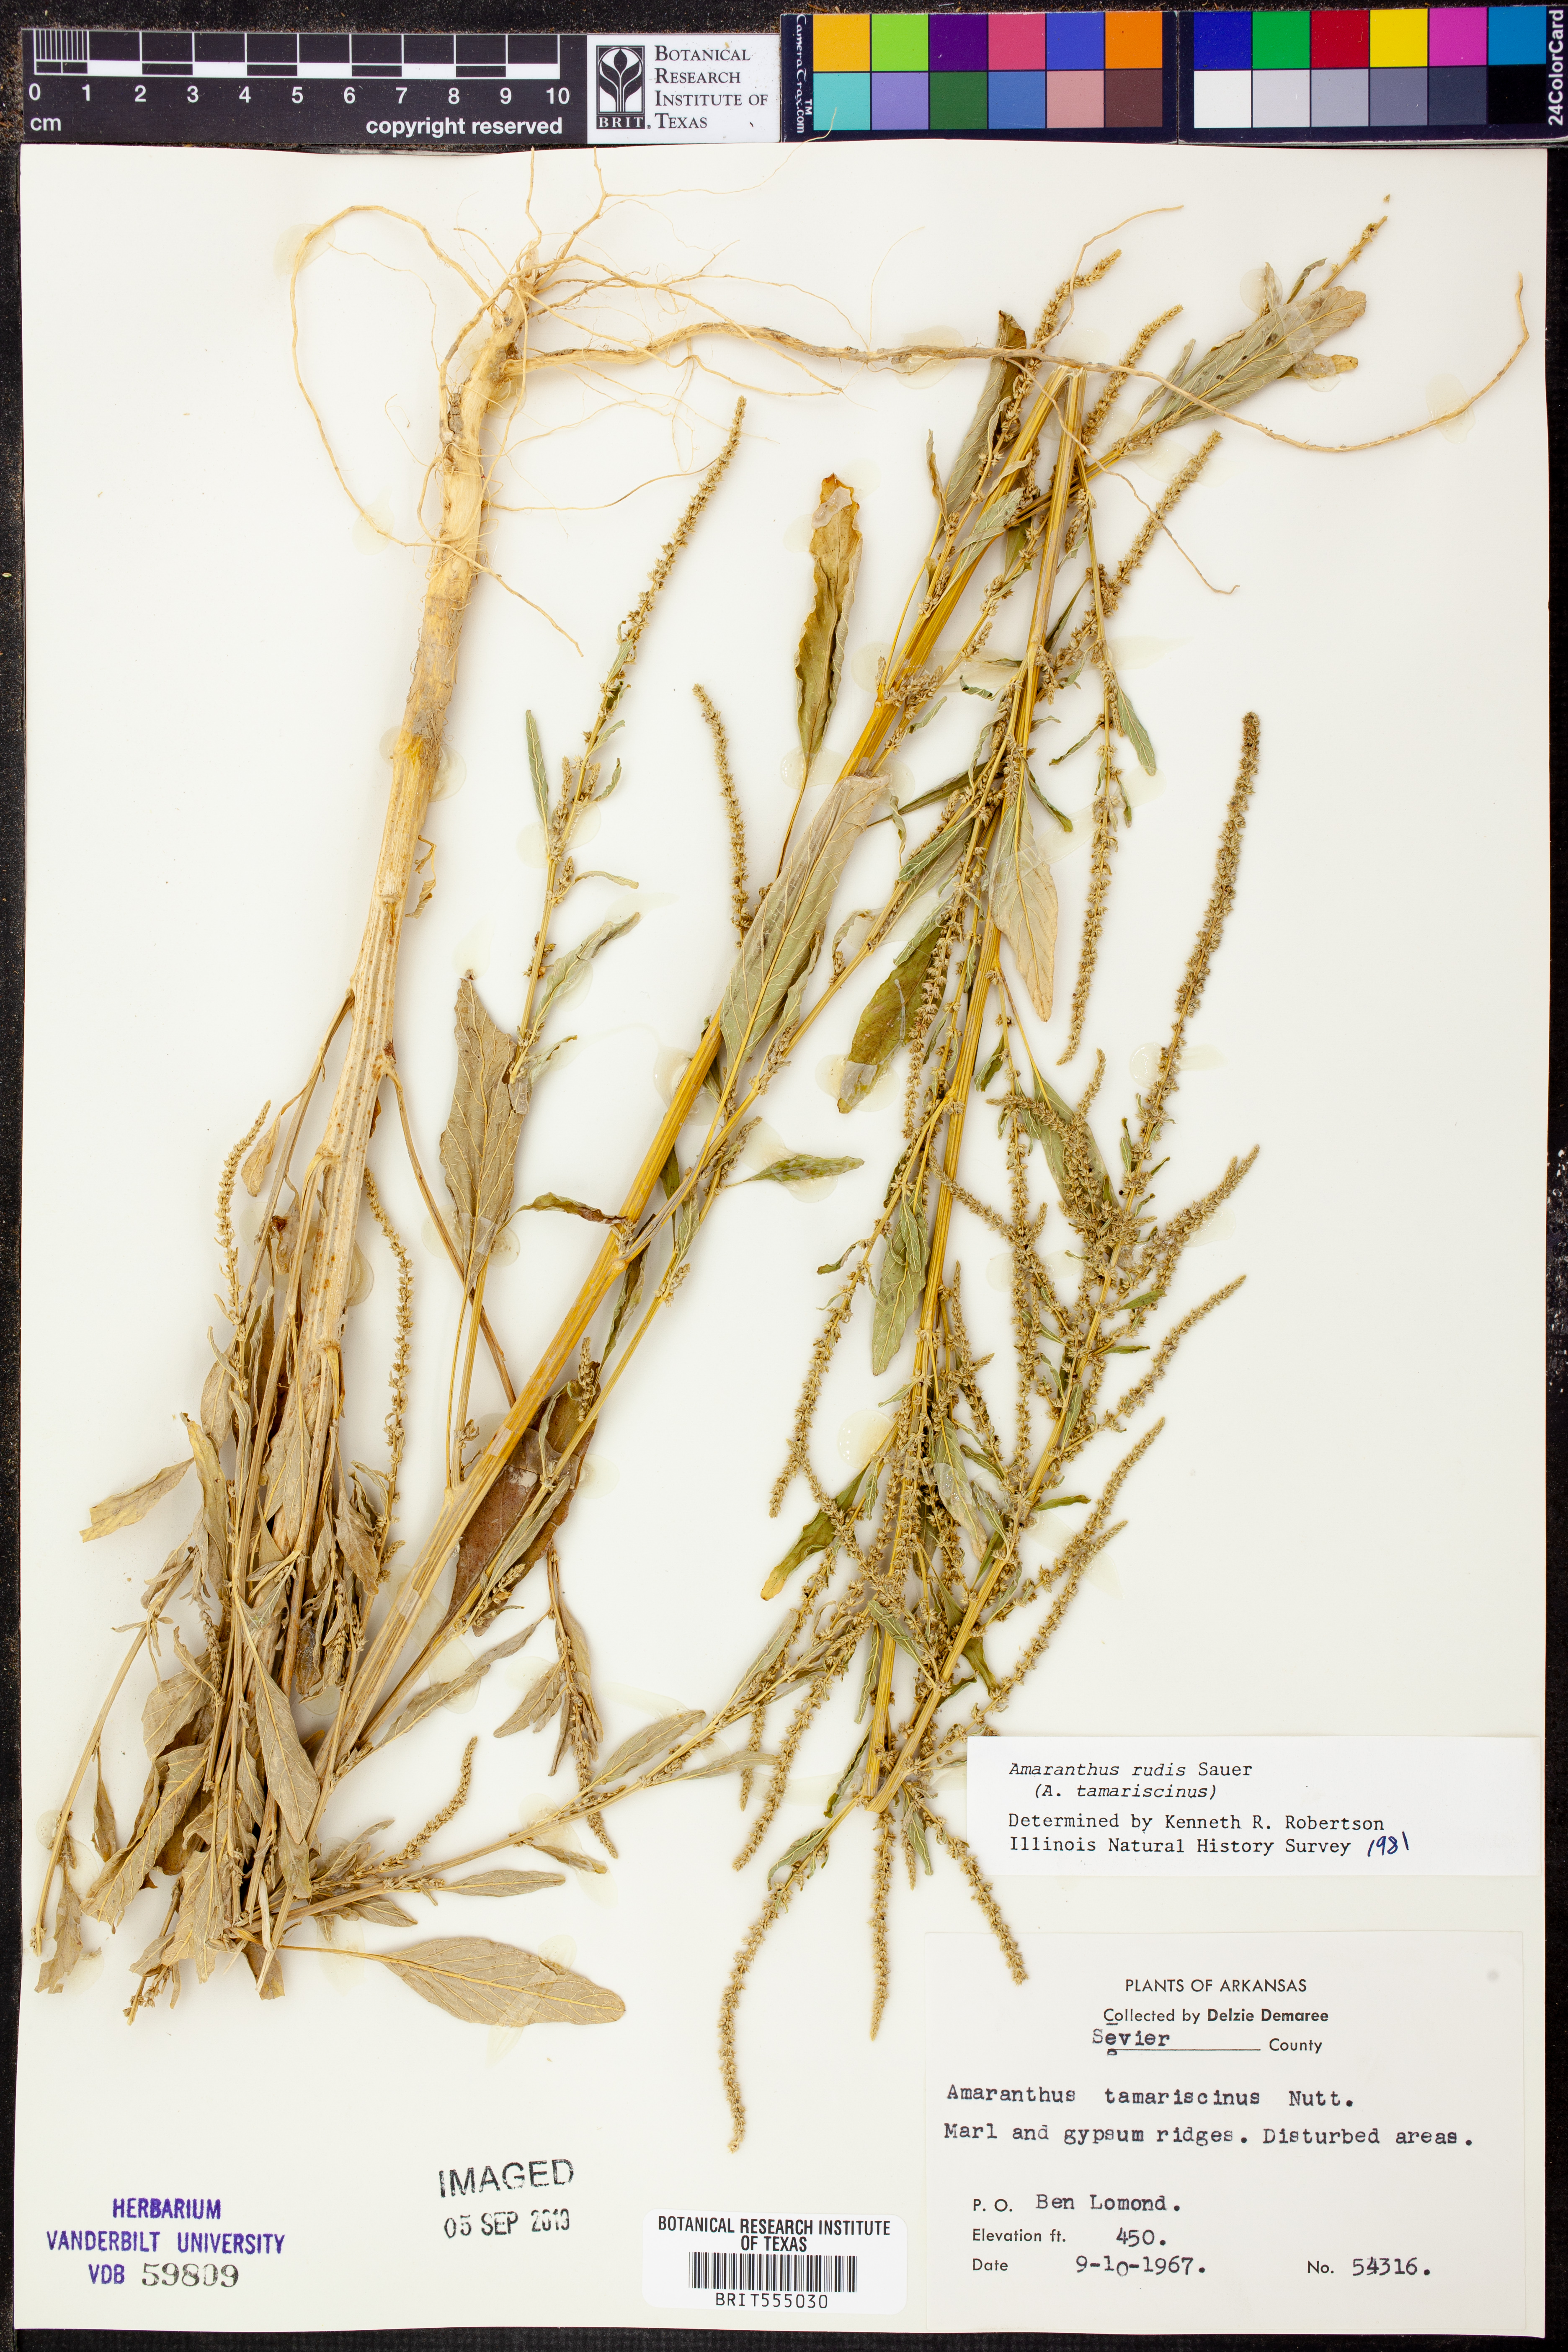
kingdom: Plantae
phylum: Tracheophyta
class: Magnoliopsida
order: Caryophyllales
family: Amaranthaceae
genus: Amaranthus
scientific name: Amaranthus tuberculatus
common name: Rough-fruit amaranth
